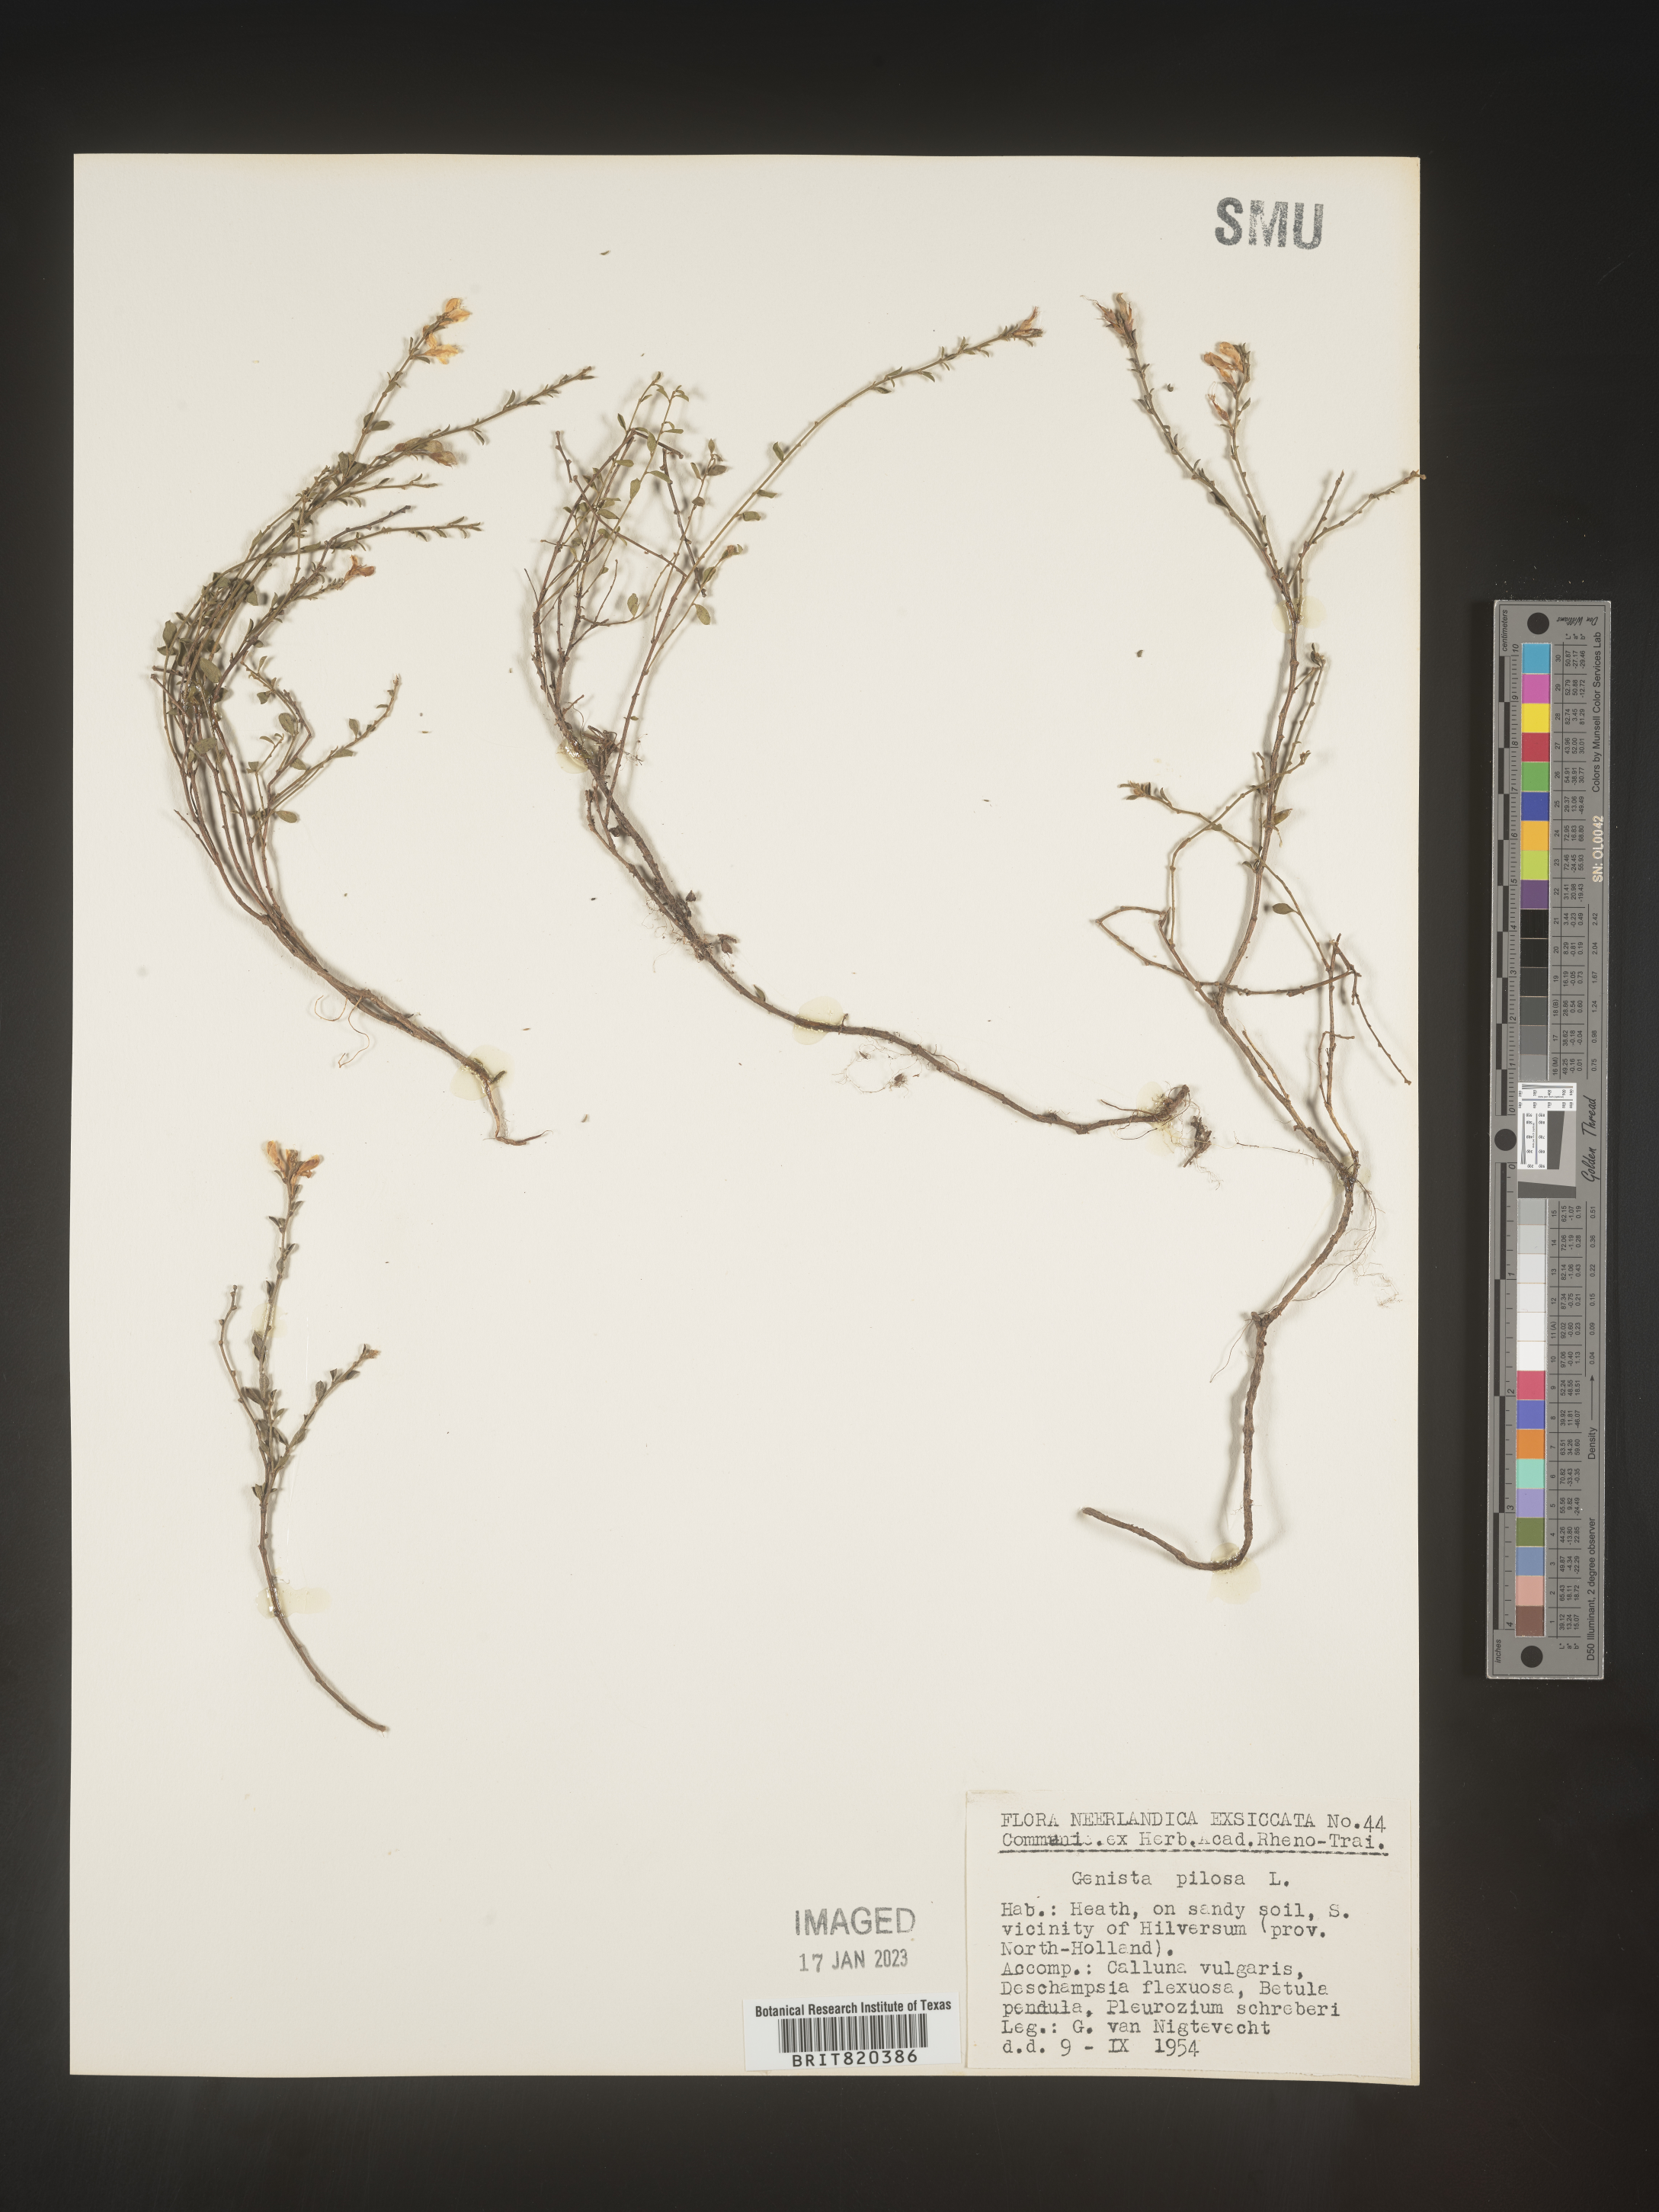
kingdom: Plantae
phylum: Tracheophyta
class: Magnoliopsida
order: Fabales
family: Fabaceae
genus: Genista
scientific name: Genista
